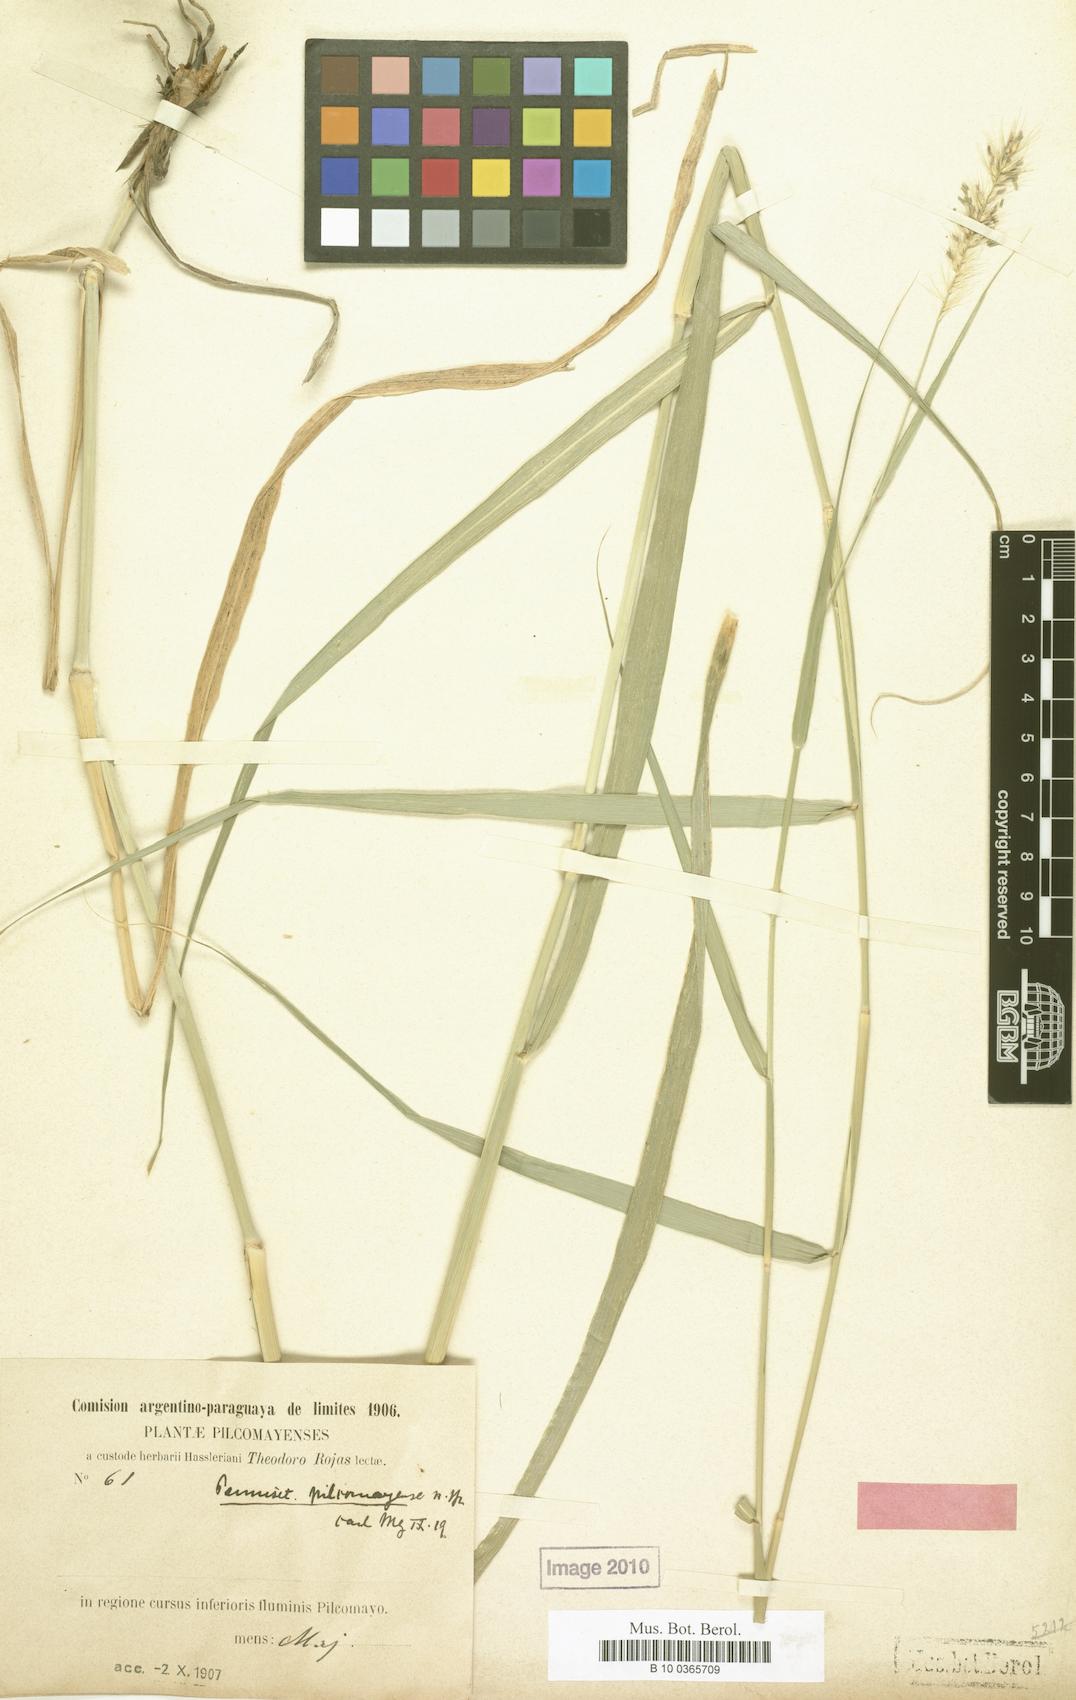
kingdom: Plantae
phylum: Tracheophyta
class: Liliopsida
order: Poales
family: Poaceae
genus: Cenchrus
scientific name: Cenchrus pilcomayensis
